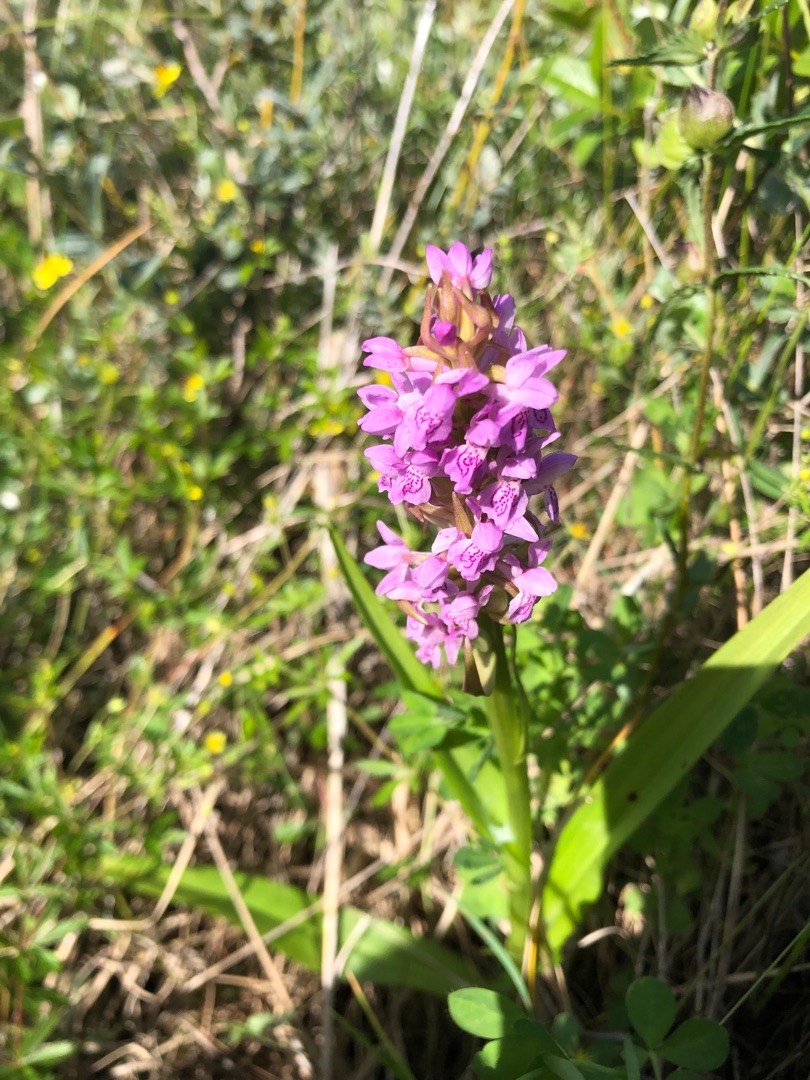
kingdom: Plantae
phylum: Tracheophyta
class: Liliopsida
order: Asparagales
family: Orchidaceae
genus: Dactylorhiza
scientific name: Dactylorhiza incarnata
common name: Kødfarvet gøgeurt
